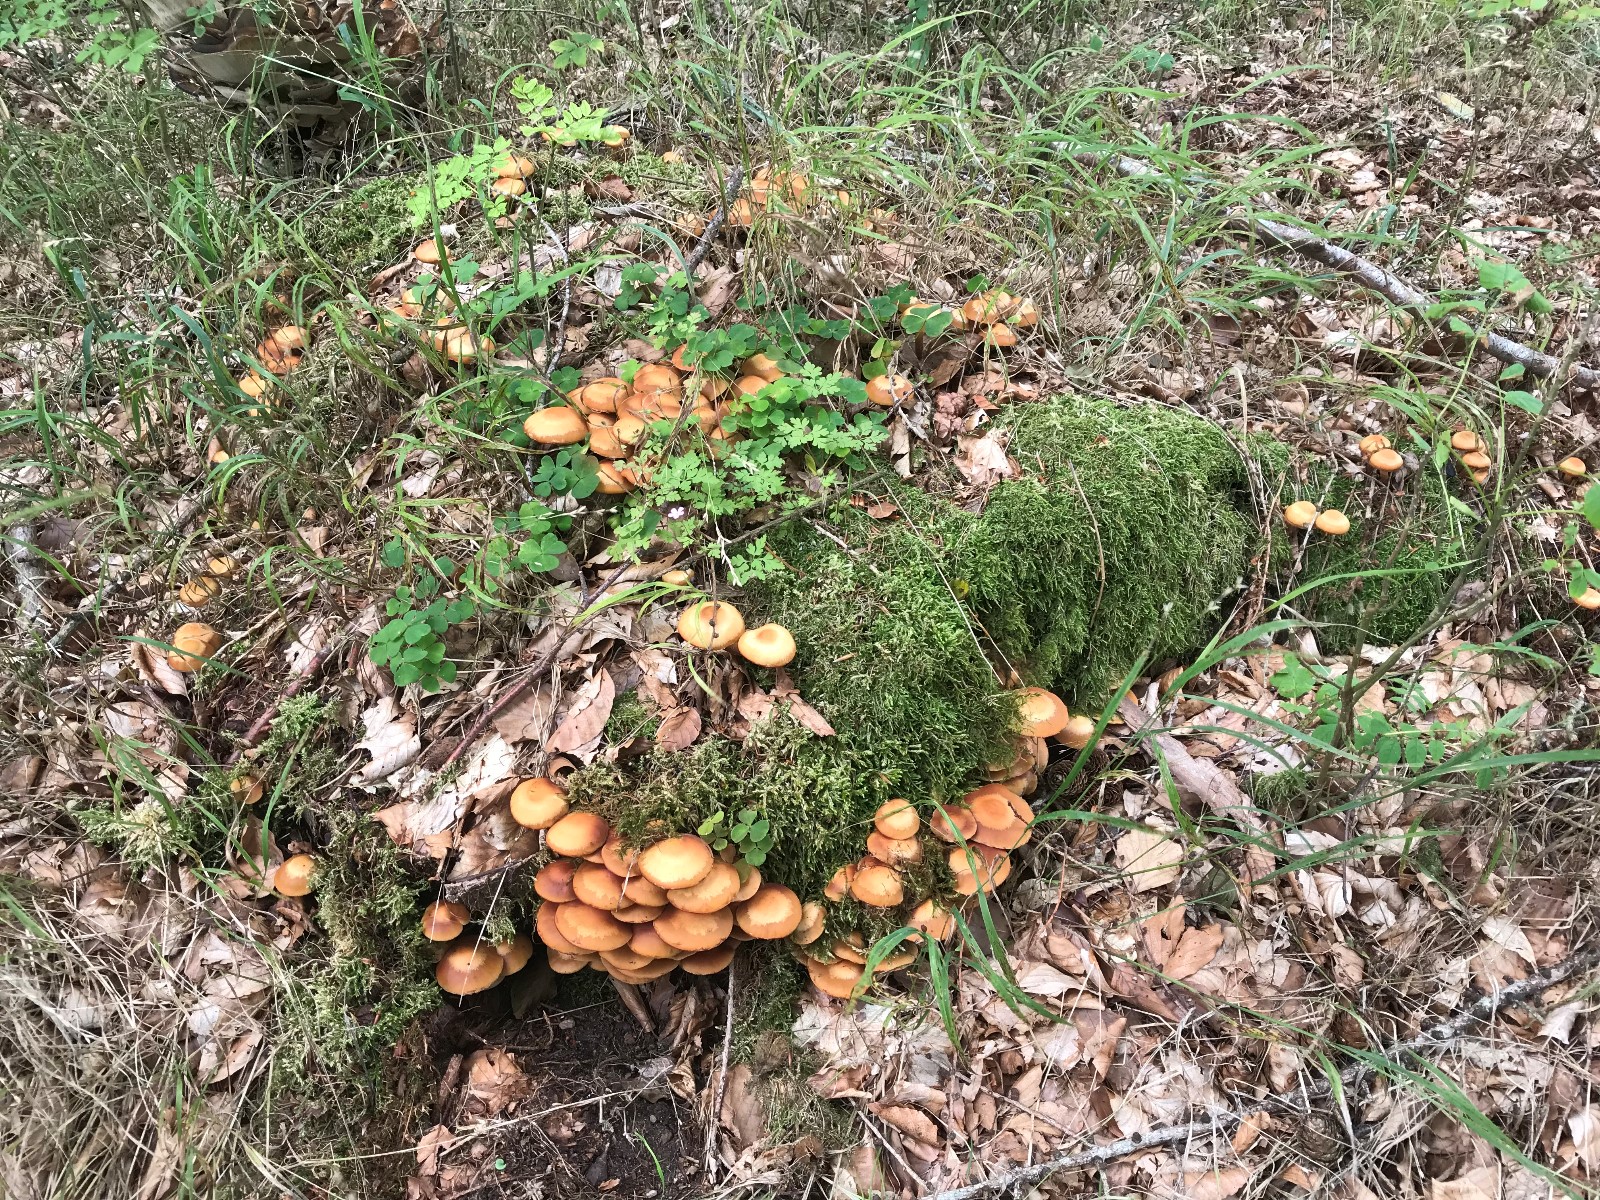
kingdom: Fungi
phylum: Basidiomycota
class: Agaricomycetes
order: Agaricales
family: Strophariaceae
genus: Kuehneromyces
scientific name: Kuehneromyces mutabilis
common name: foranderlig skælhat
